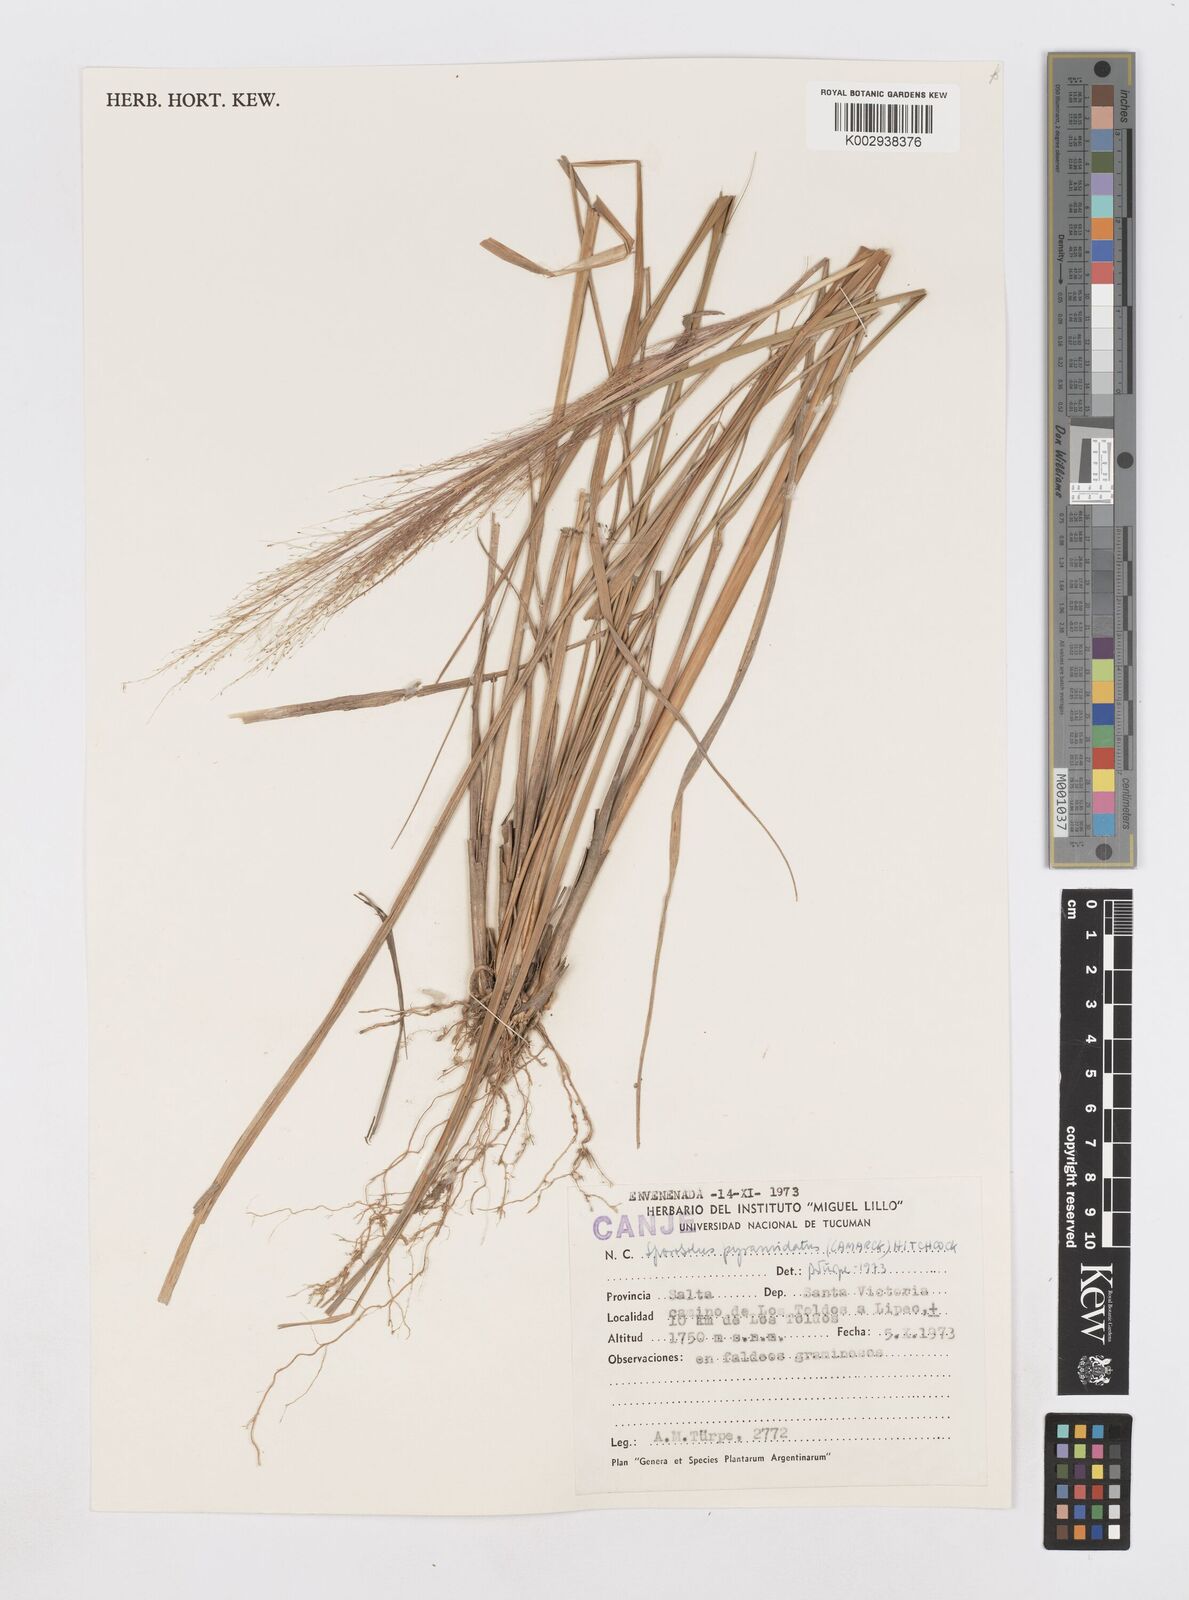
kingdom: Plantae
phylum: Tracheophyta
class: Liliopsida
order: Poales
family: Poaceae
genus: Sporobolus
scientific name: Sporobolus pyramidatus
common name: Whorled dropseed
